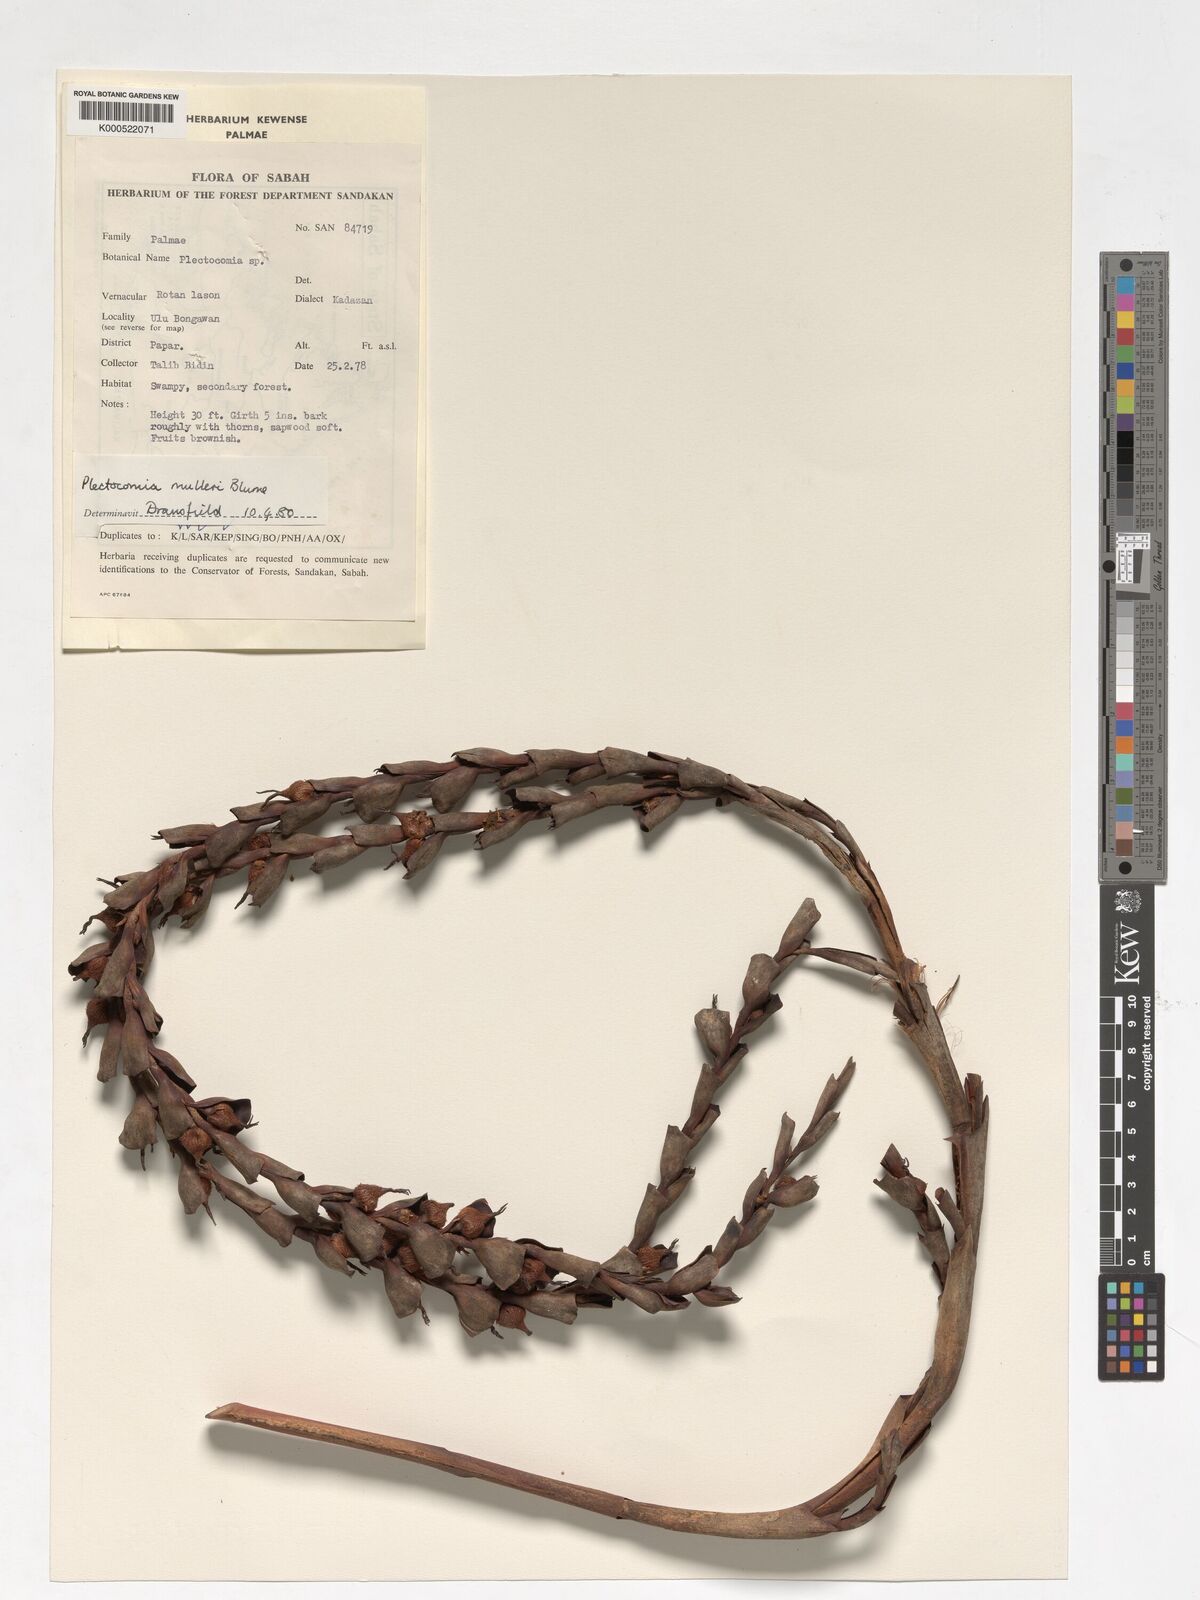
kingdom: Plantae
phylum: Tracheophyta
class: Liliopsida
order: Arecales
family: Arecaceae
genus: Plectocomia
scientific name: Plectocomia mulleri
